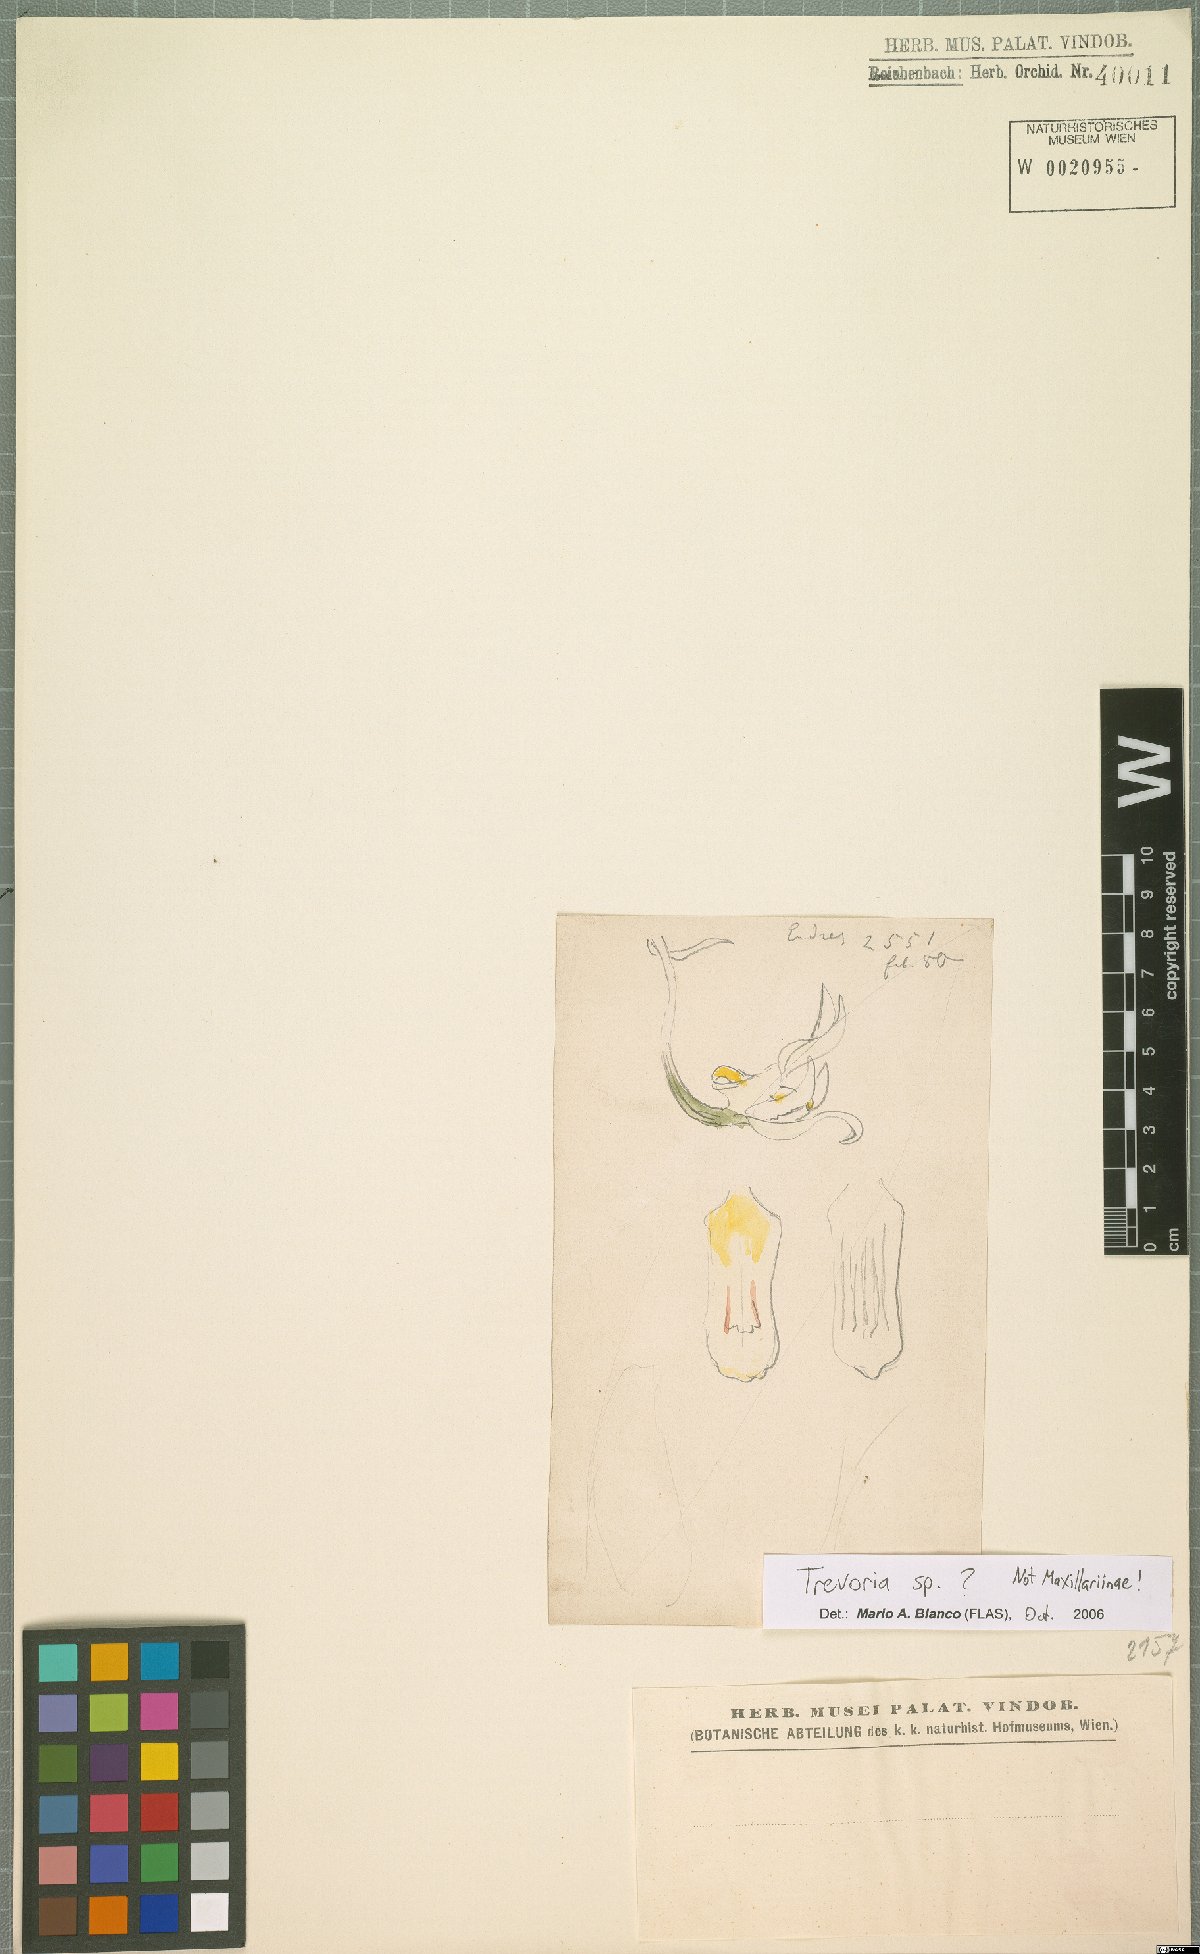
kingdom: Plantae
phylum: Tracheophyta
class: Liliopsida
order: Asparagales
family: Orchidaceae
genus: Trevoria
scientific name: Trevoria
